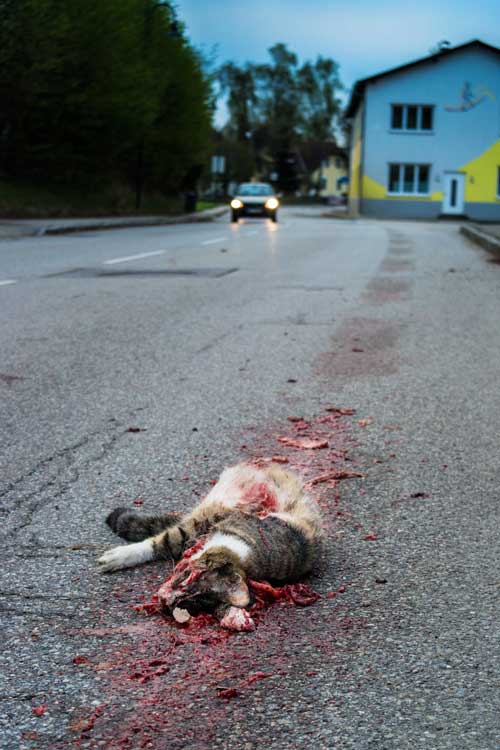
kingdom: Animalia
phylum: Chordata
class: Mammalia
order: Carnivora
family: Felidae
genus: Felis
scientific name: Felis catus
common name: Domestic cat
